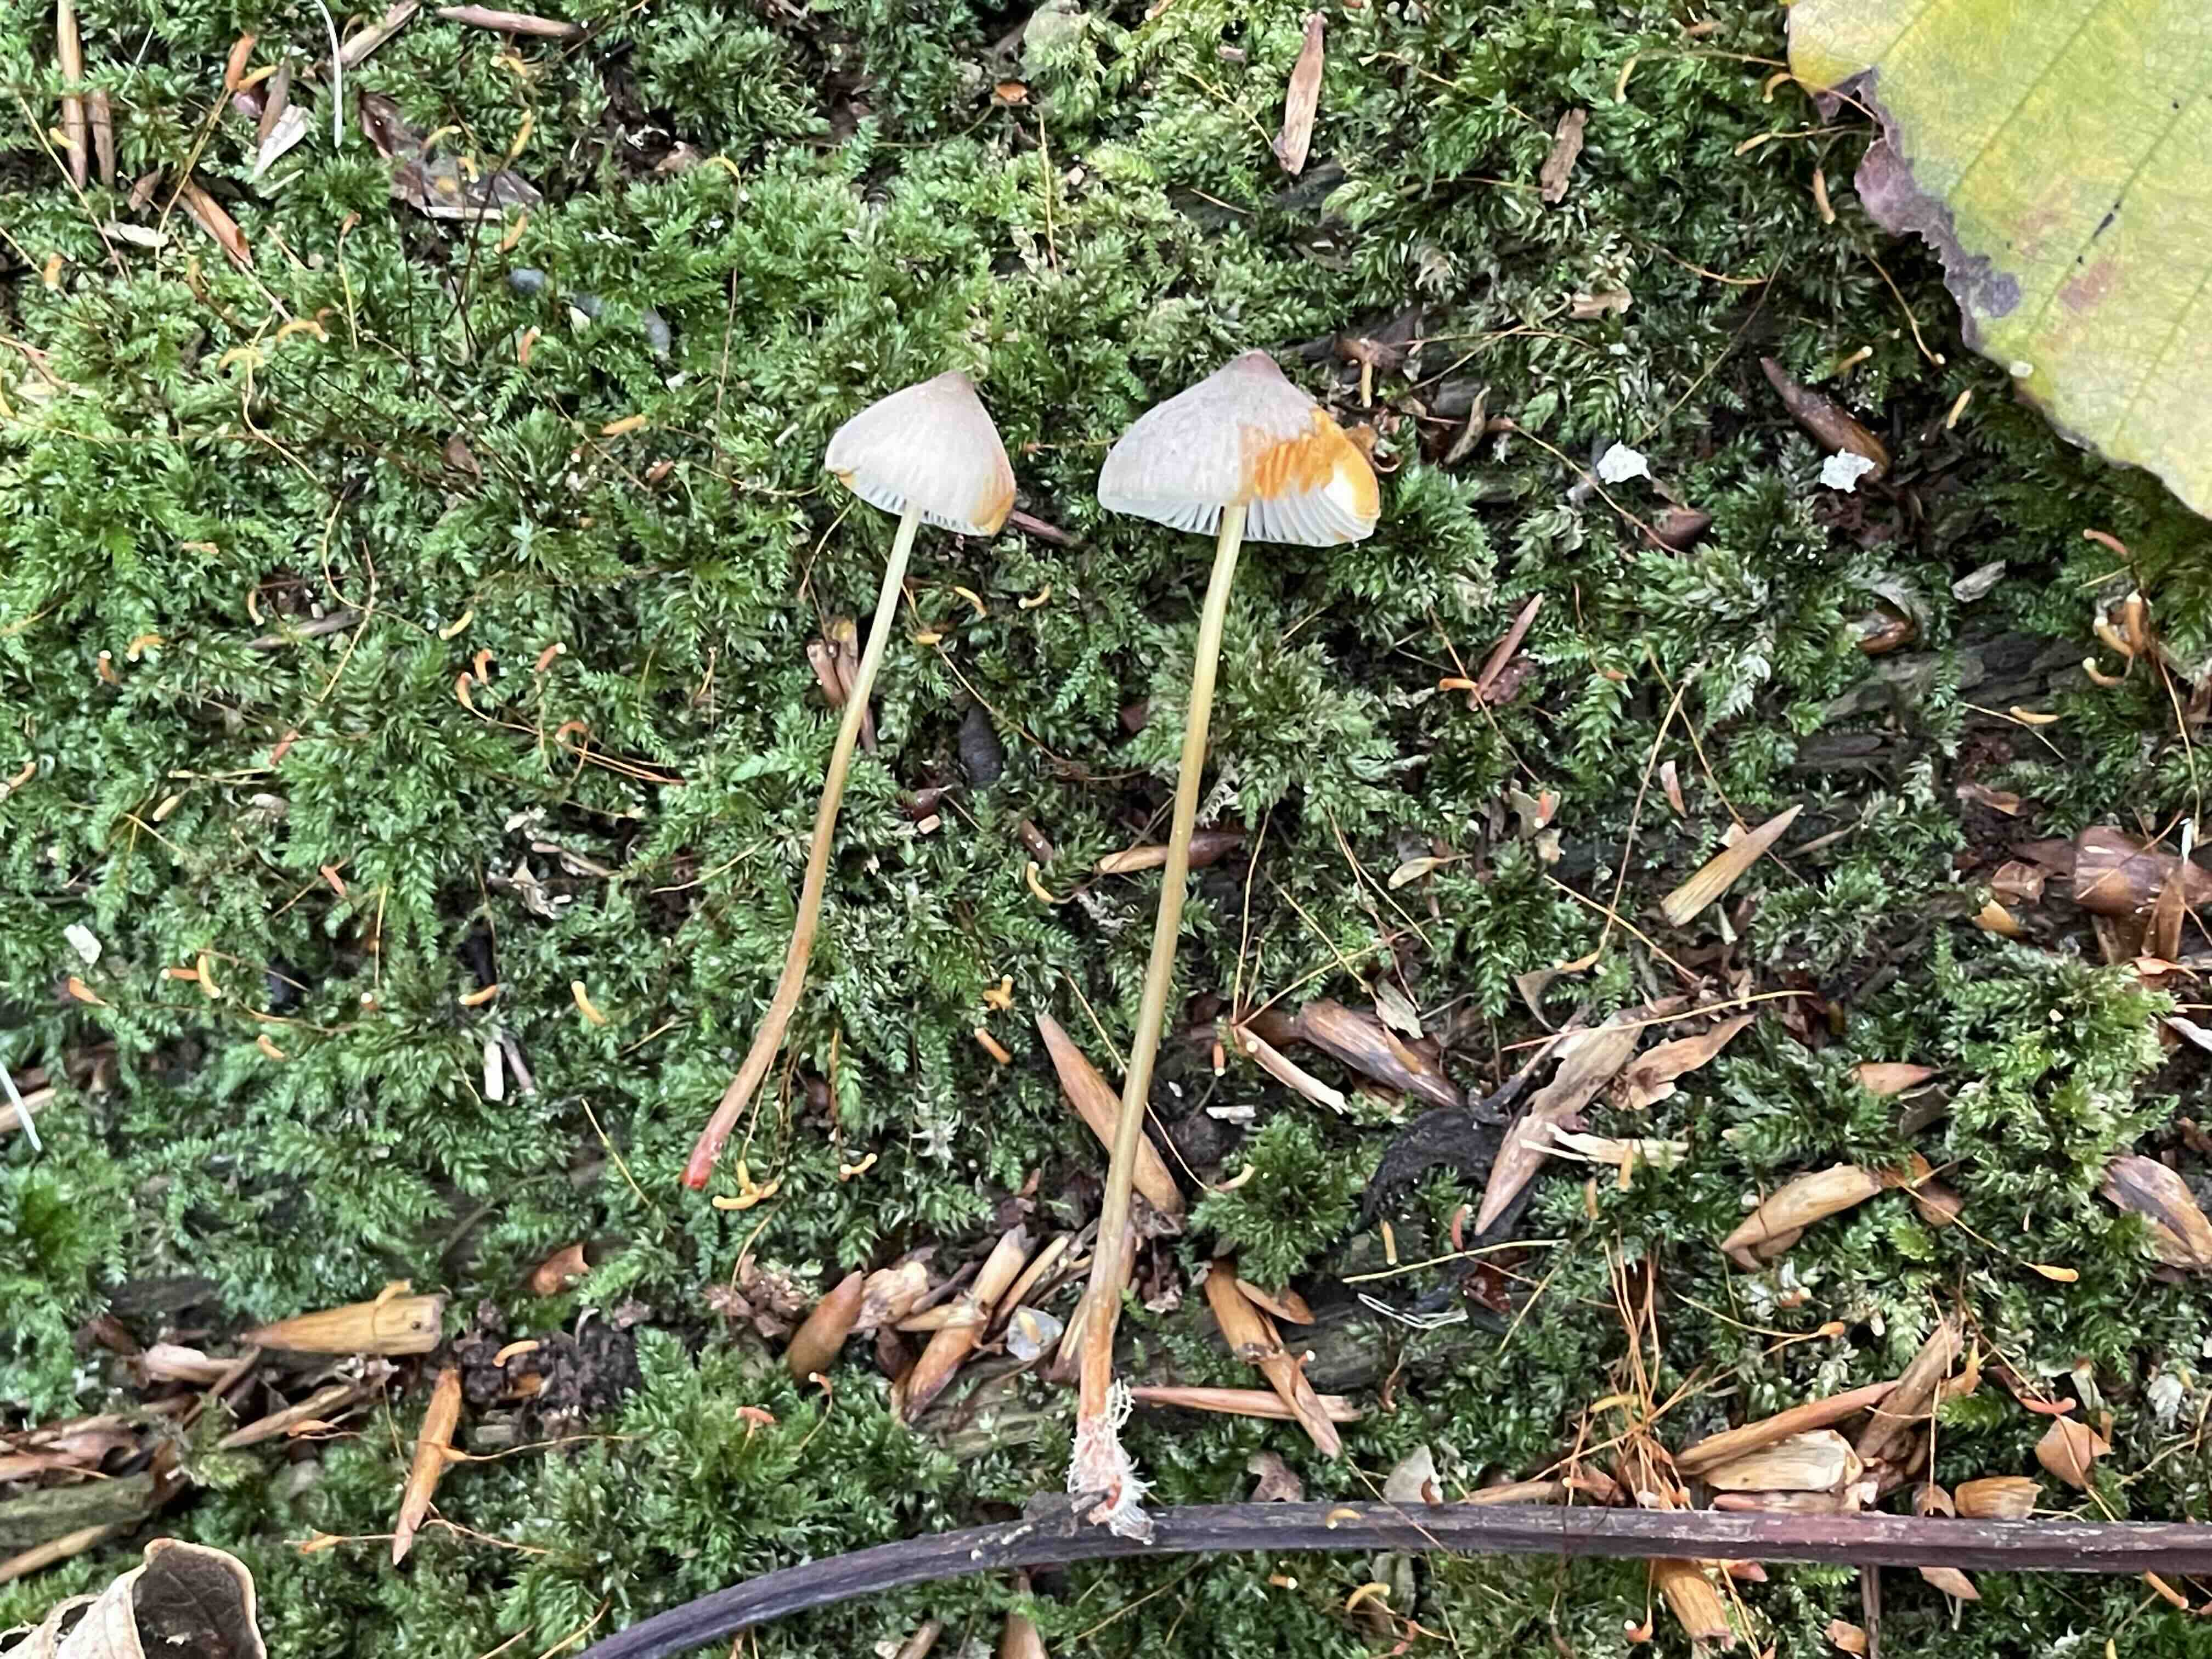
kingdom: Fungi
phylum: Basidiomycota
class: Agaricomycetes
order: Agaricales
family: Mycenaceae
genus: Mycena
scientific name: Mycena crocata
